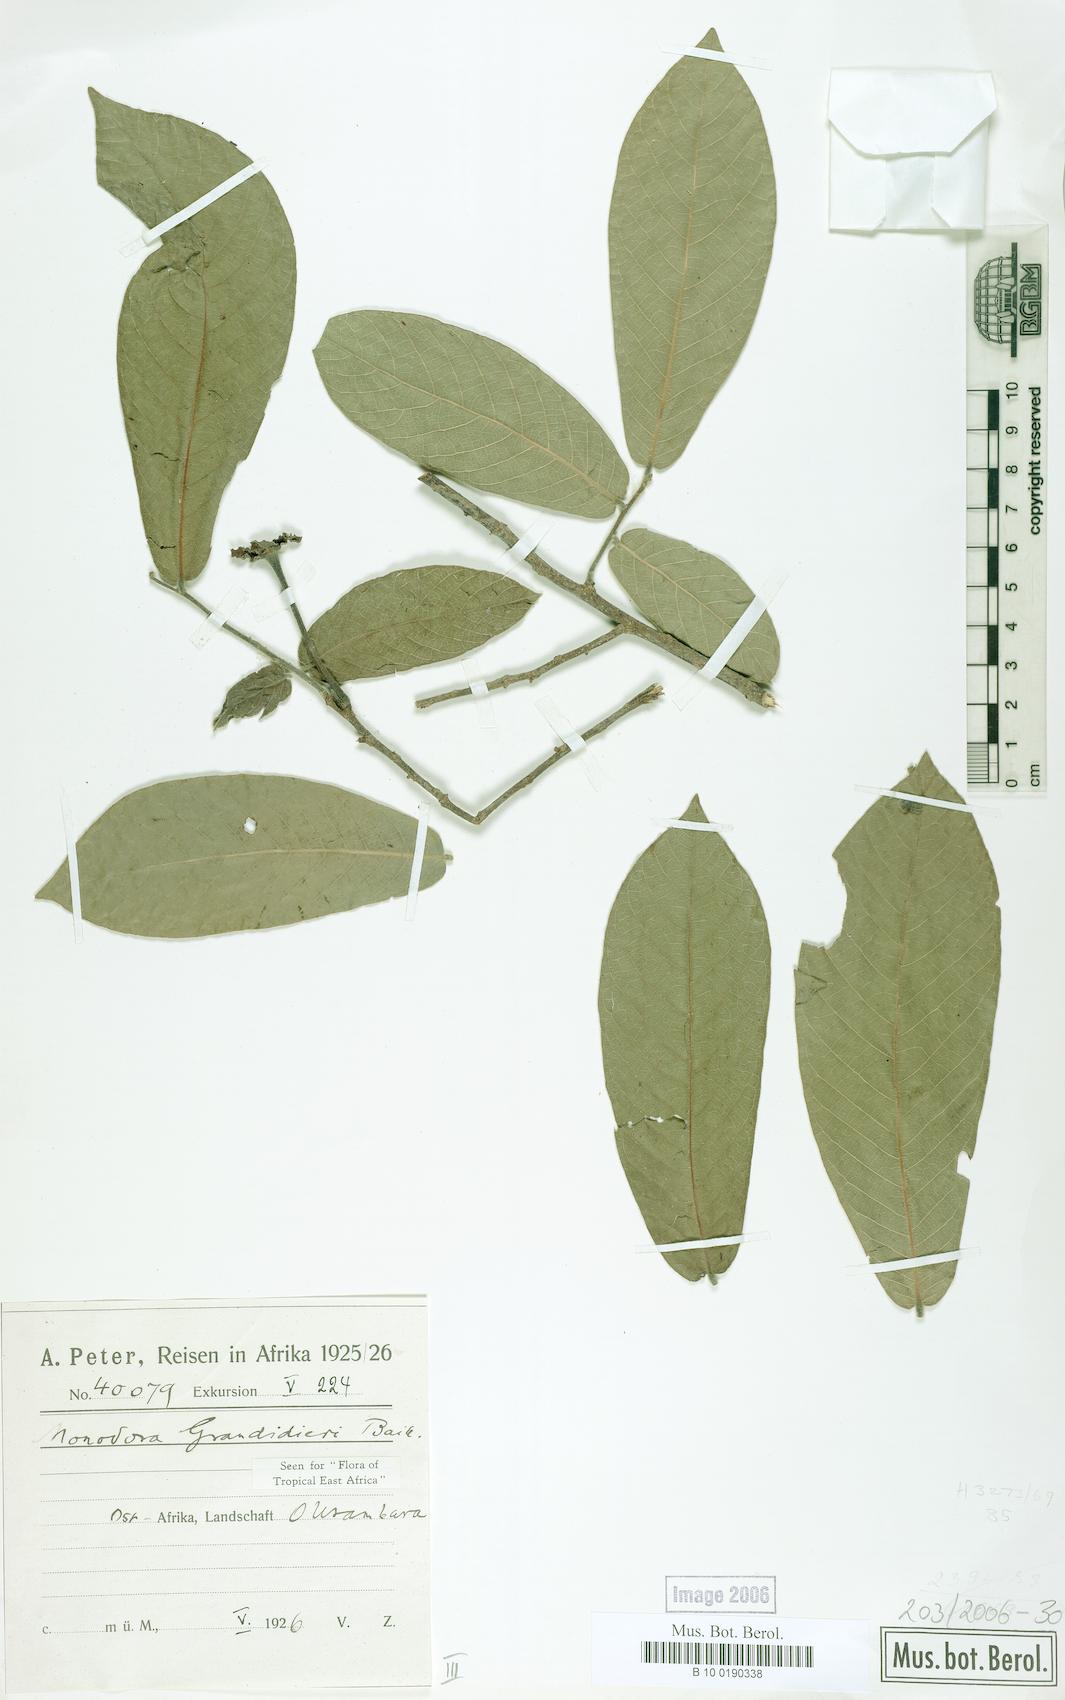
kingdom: Plantae
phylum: Tracheophyta
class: Magnoliopsida
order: Magnoliales
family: Annonaceae
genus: Monodora
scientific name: Monodora grandidieri
